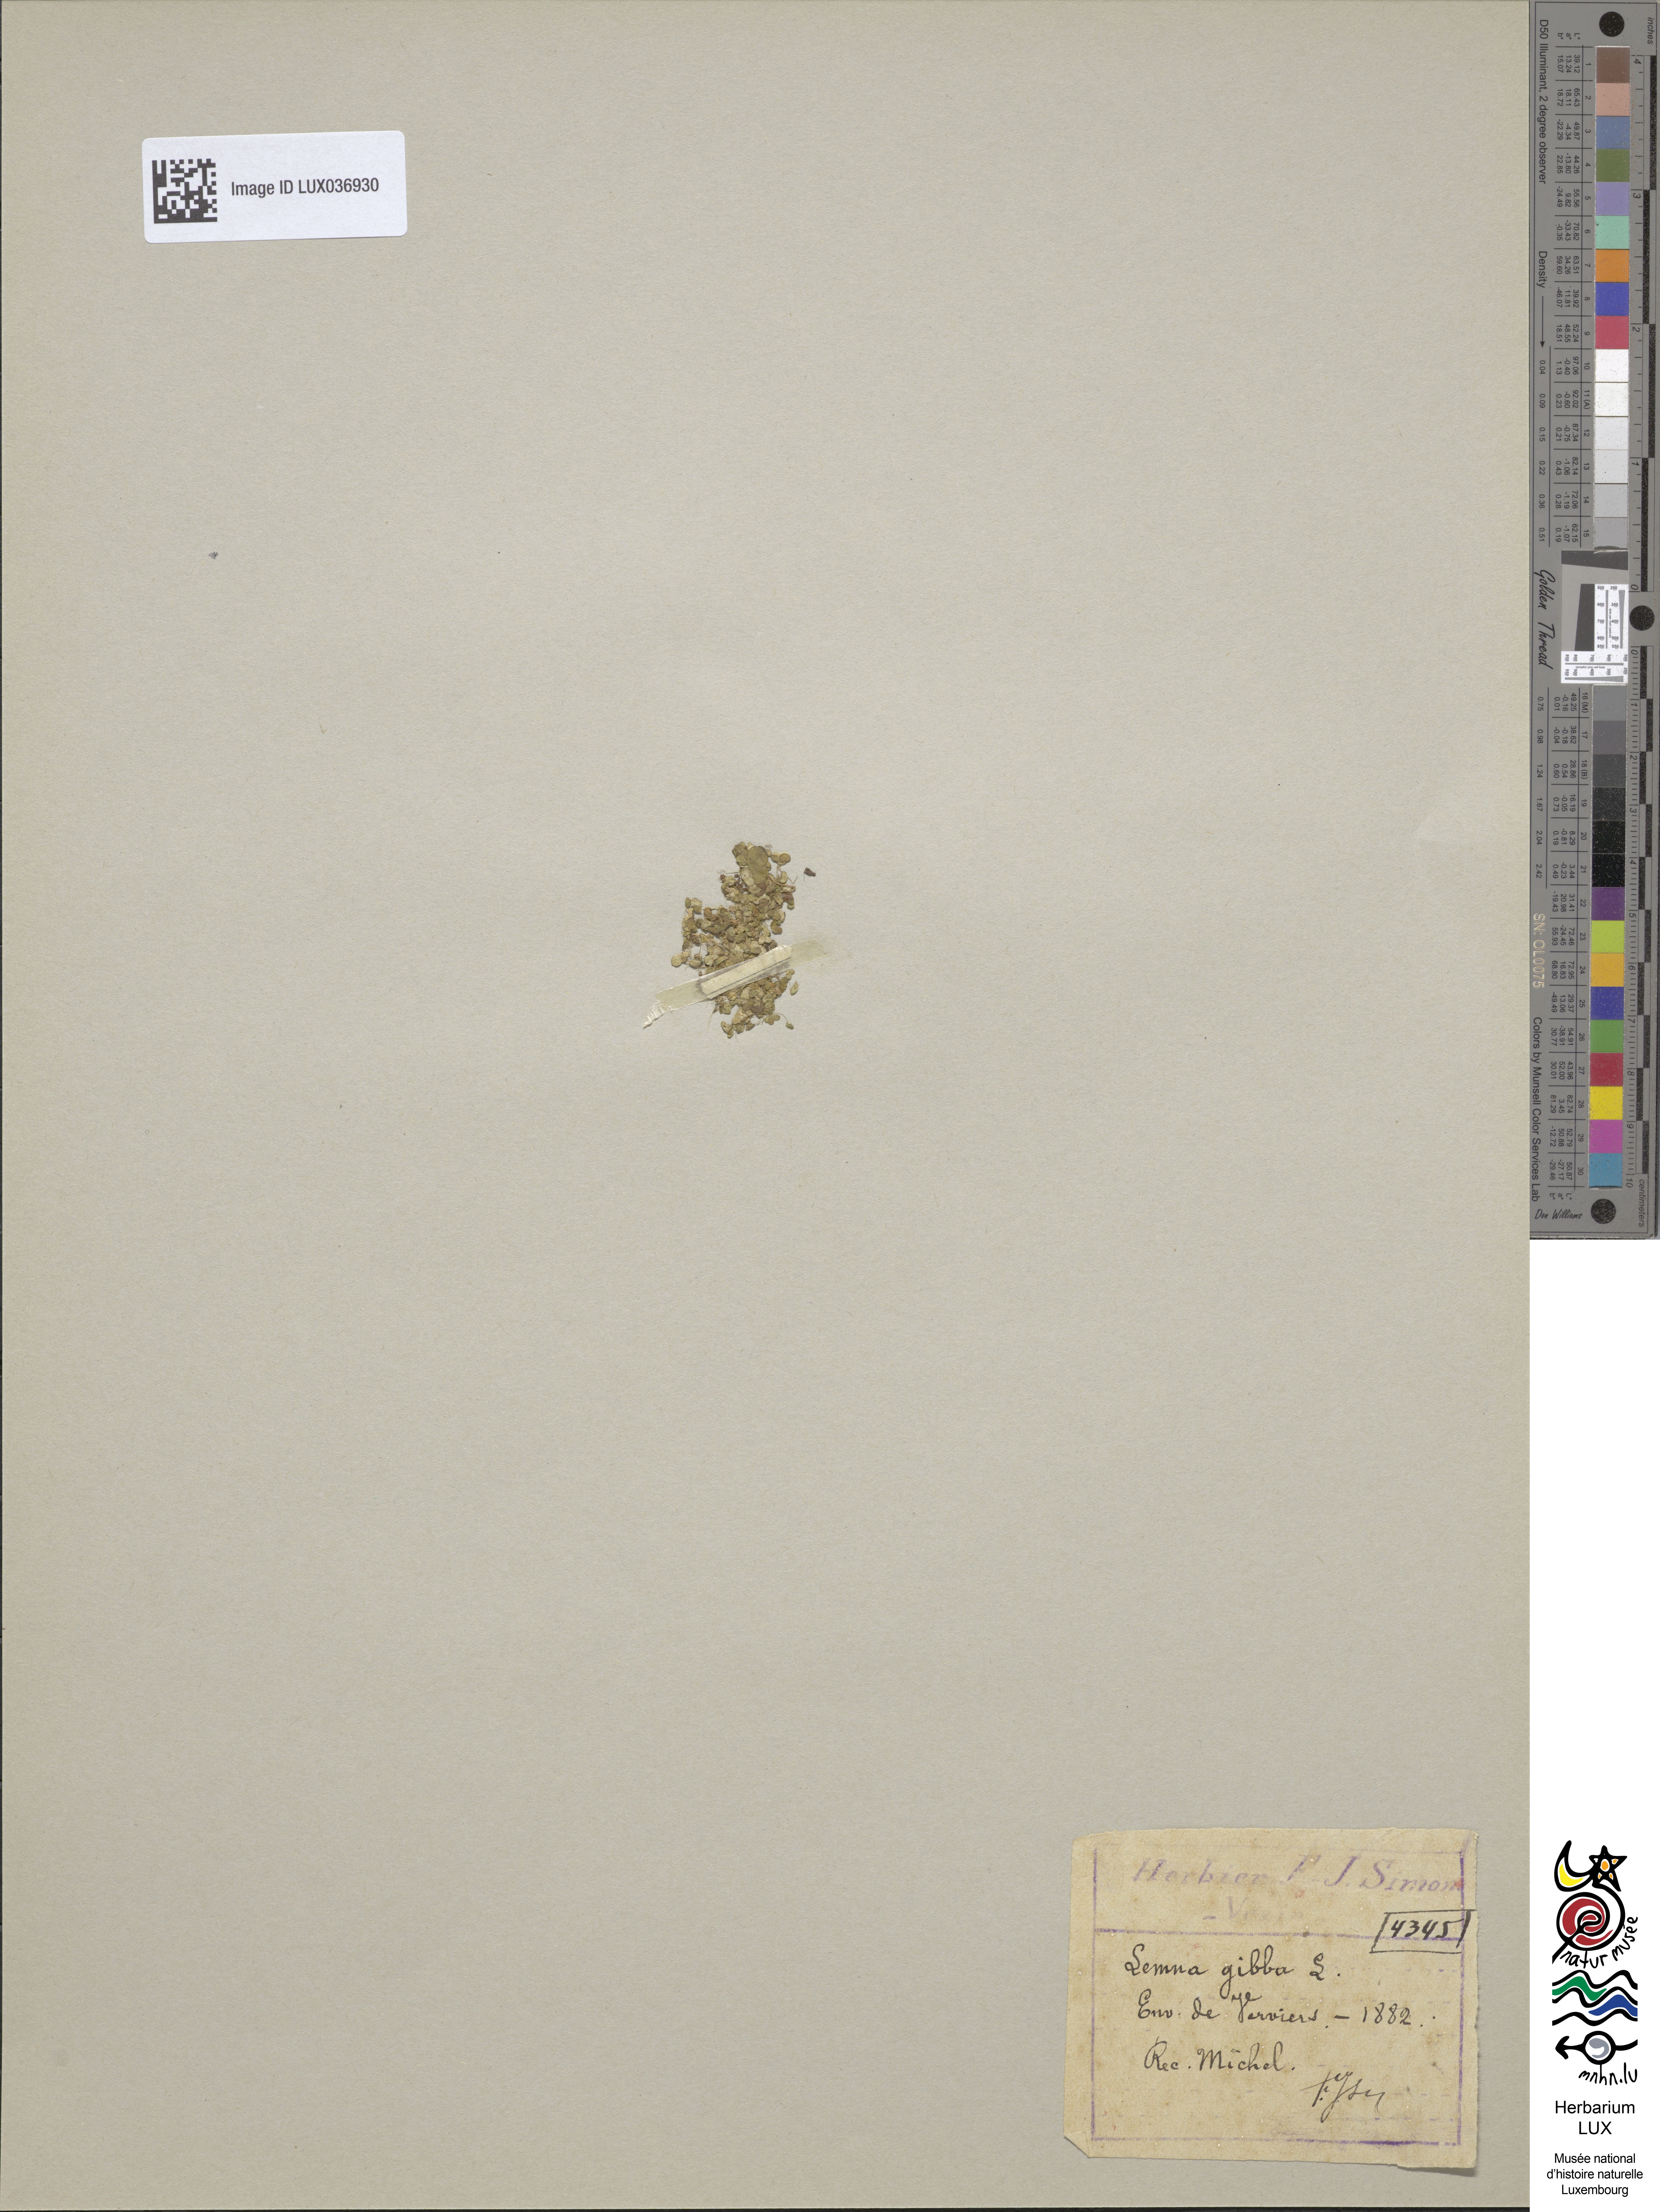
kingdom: Plantae
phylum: Tracheophyta
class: Liliopsida
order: Alismatales
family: Araceae
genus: Lemna
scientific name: Lemna gibba
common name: Fat duckweed
